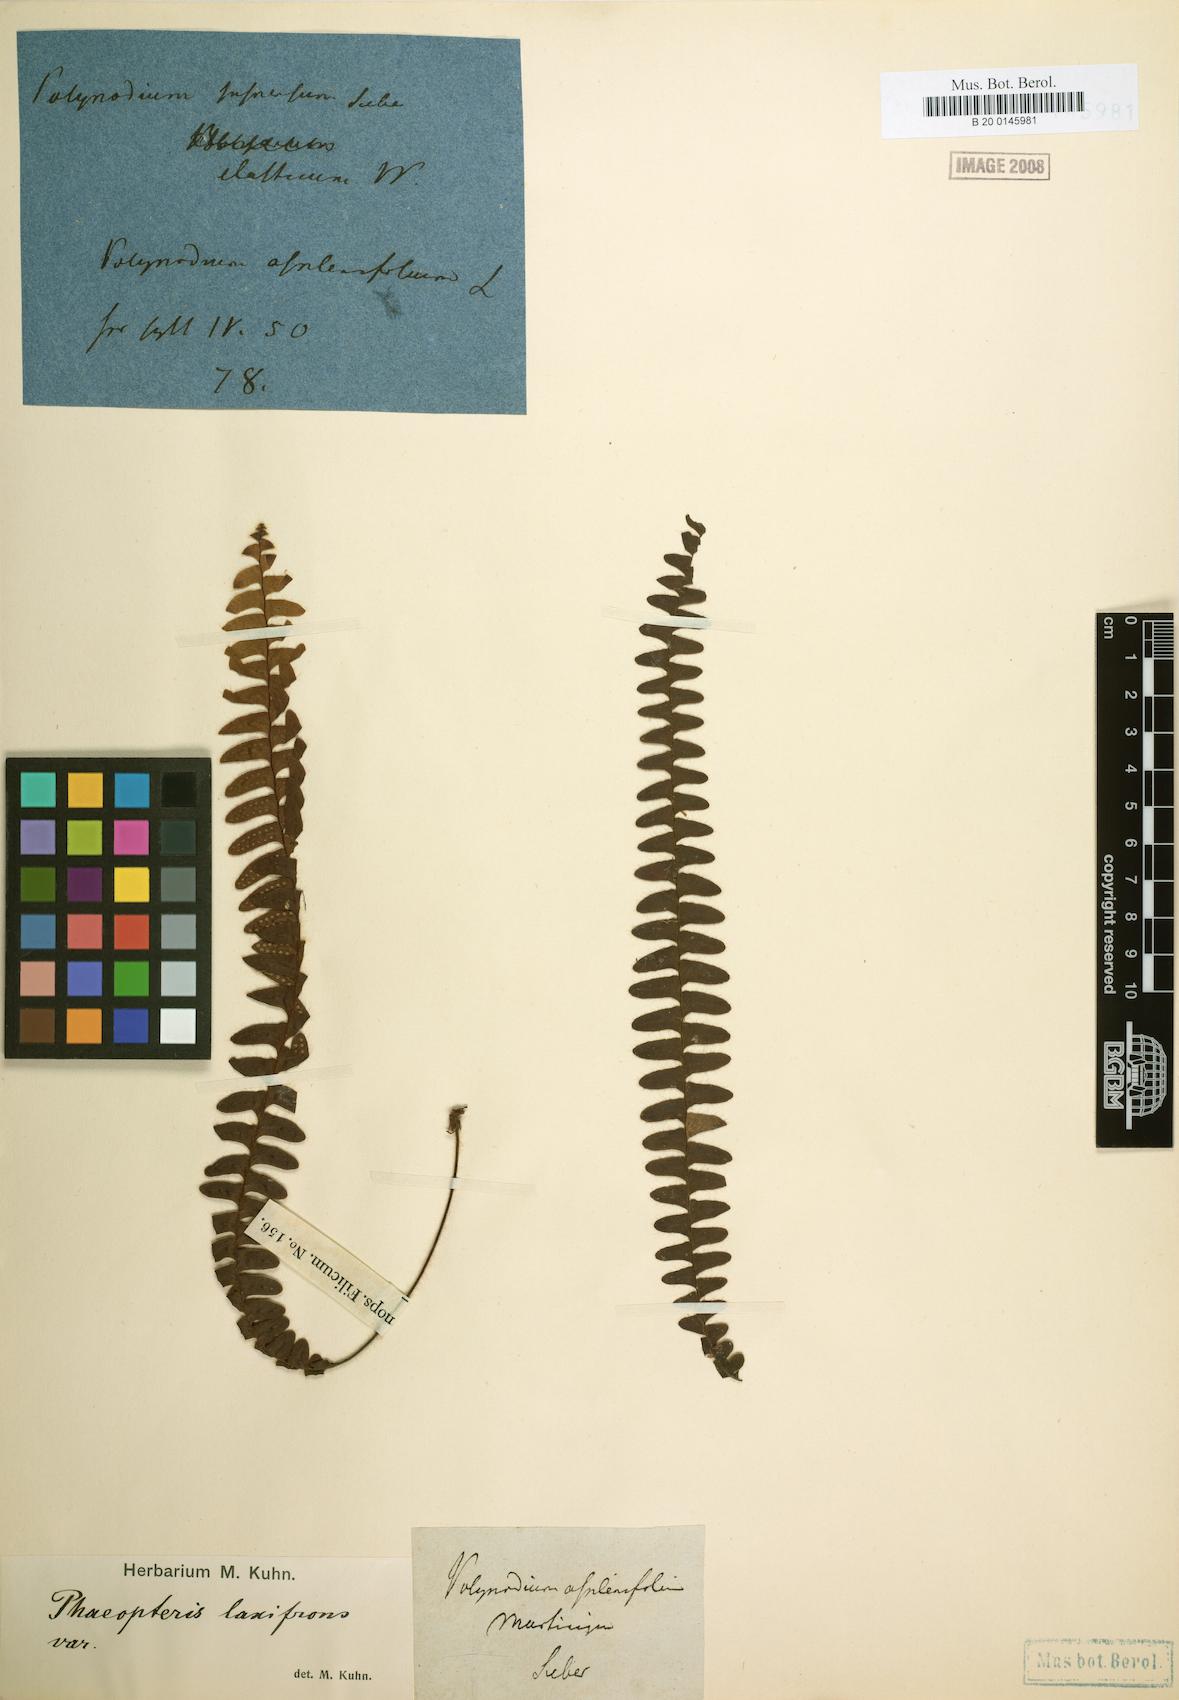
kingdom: Plantae
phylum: Tracheophyta
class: Polypodiopsida
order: Polypodiales
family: Polypodiaceae
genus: Terpsichore
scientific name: Terpsichore asplenifolia
